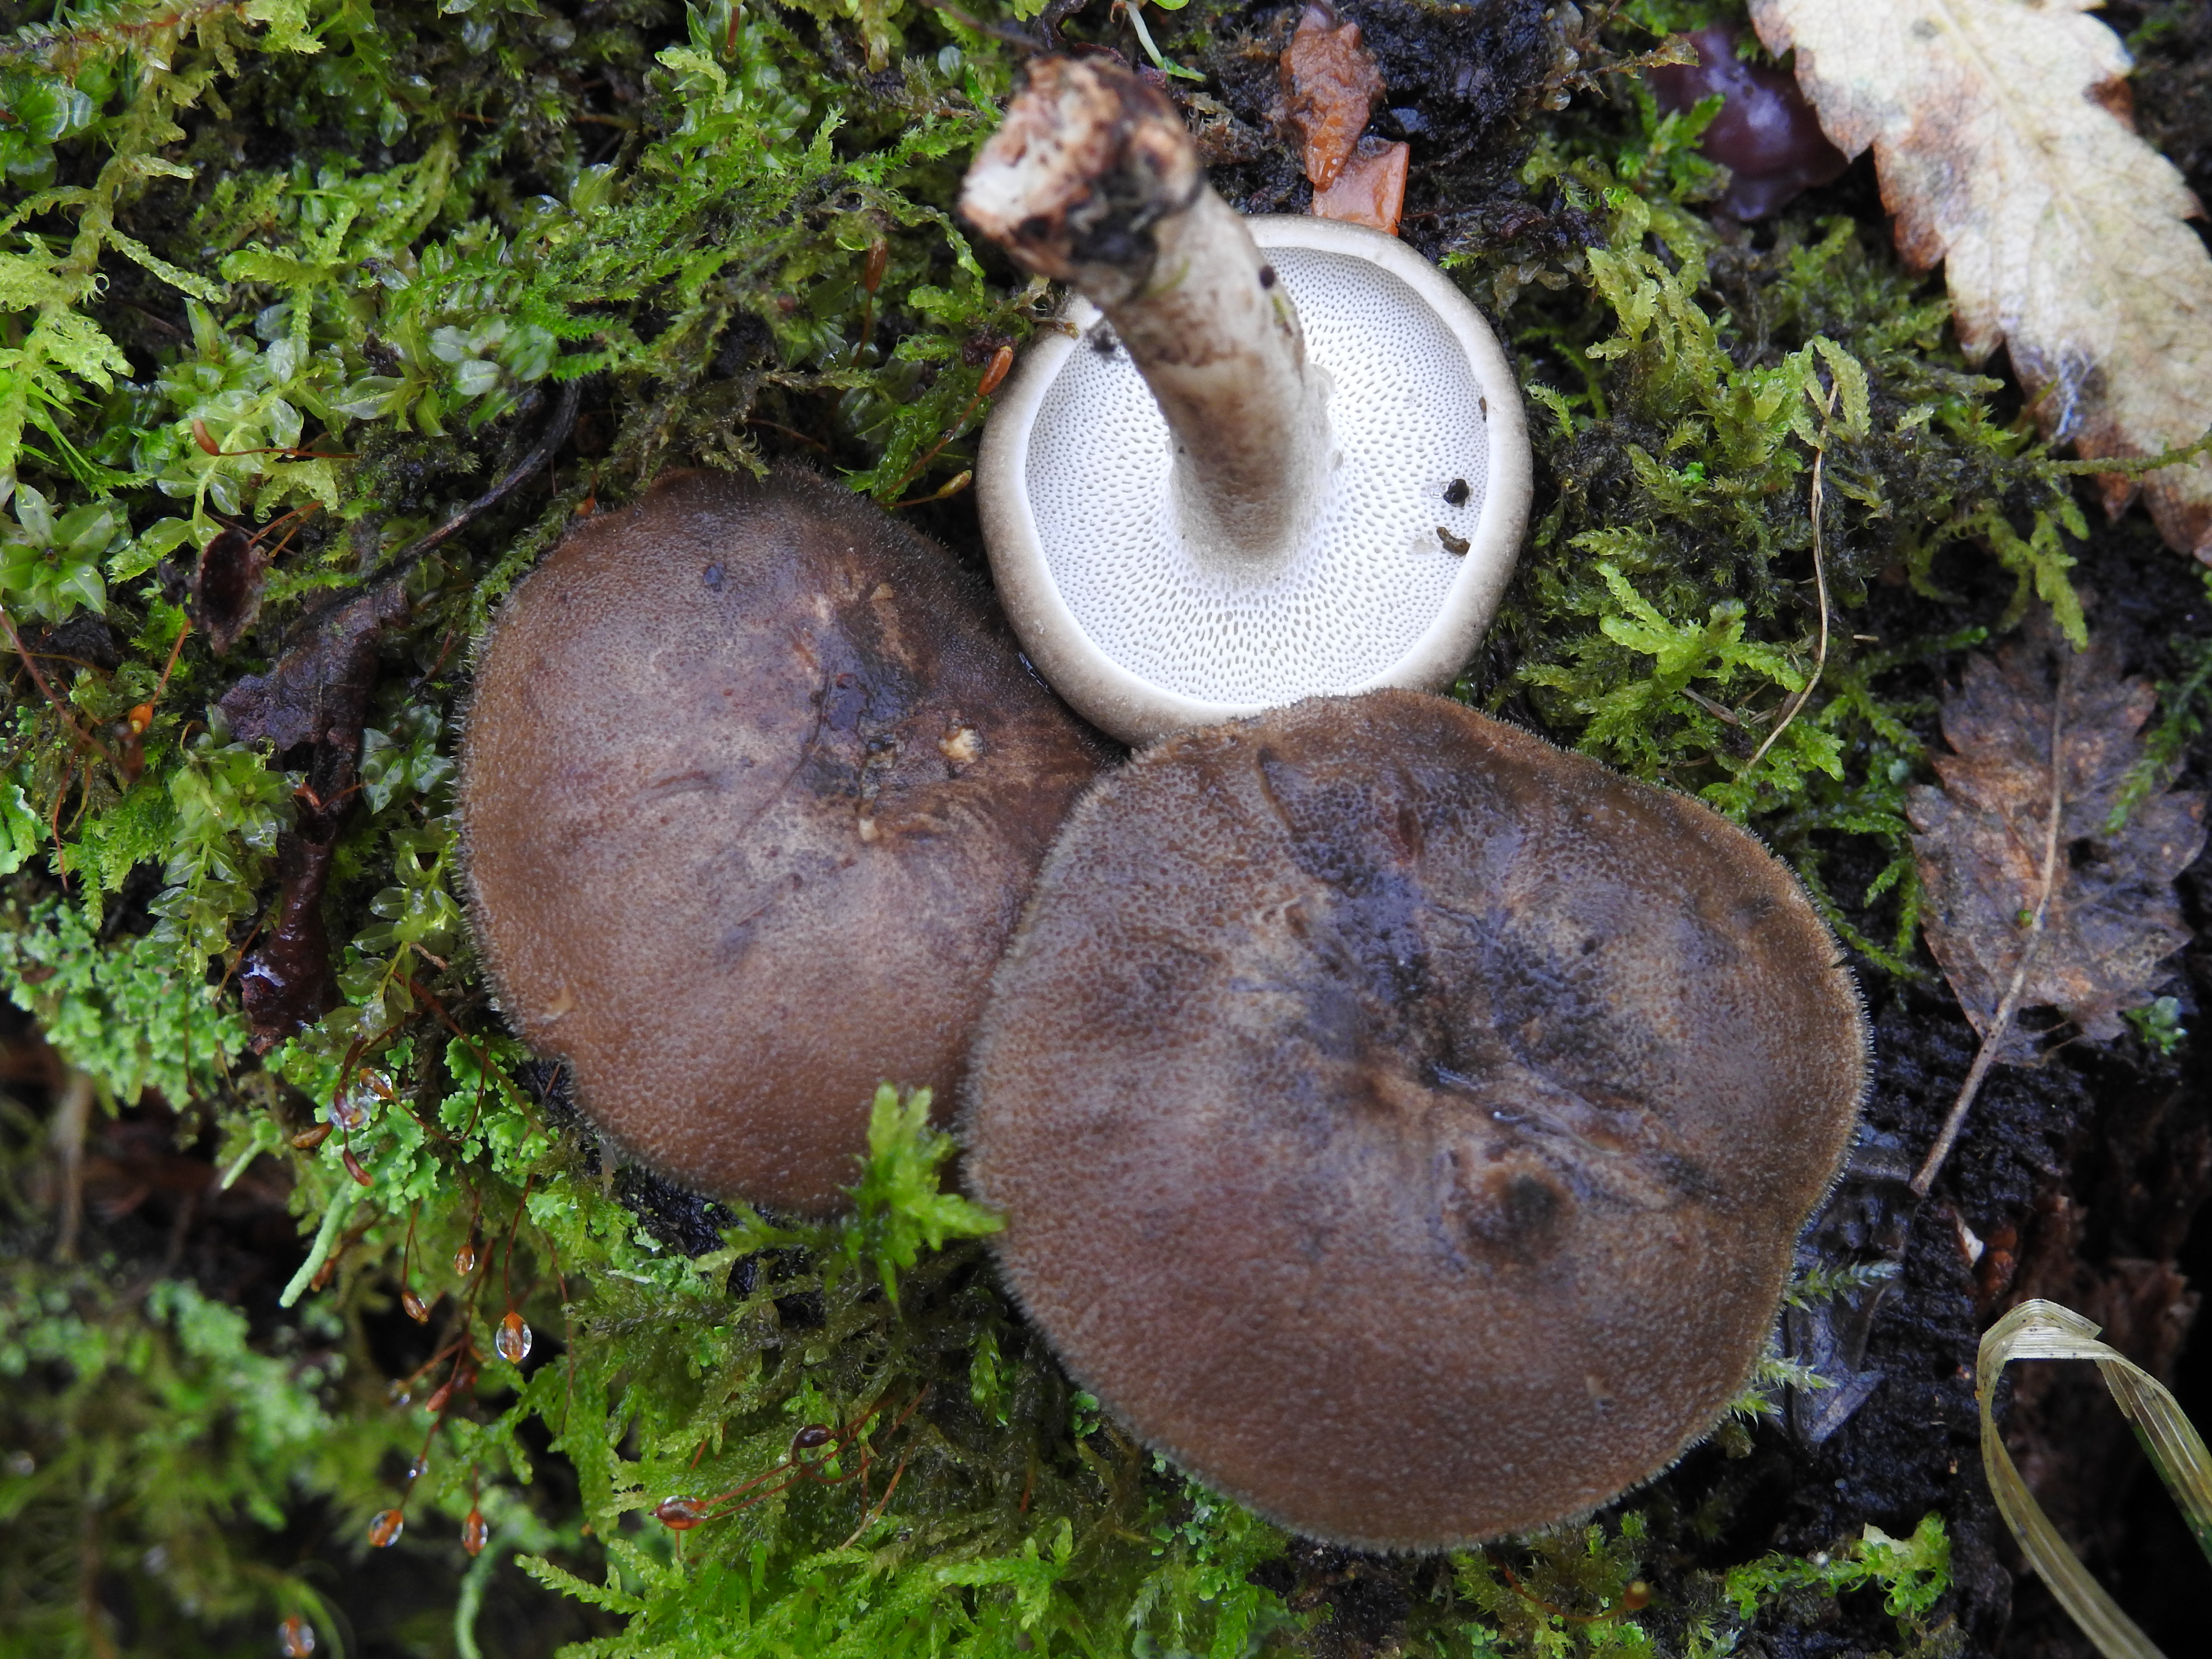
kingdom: Fungi
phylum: Basidiomycota
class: Agaricomycetes
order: Polyporales
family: Polyporaceae
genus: Lentinus
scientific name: Lentinus brumalis
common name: Winter polypore
